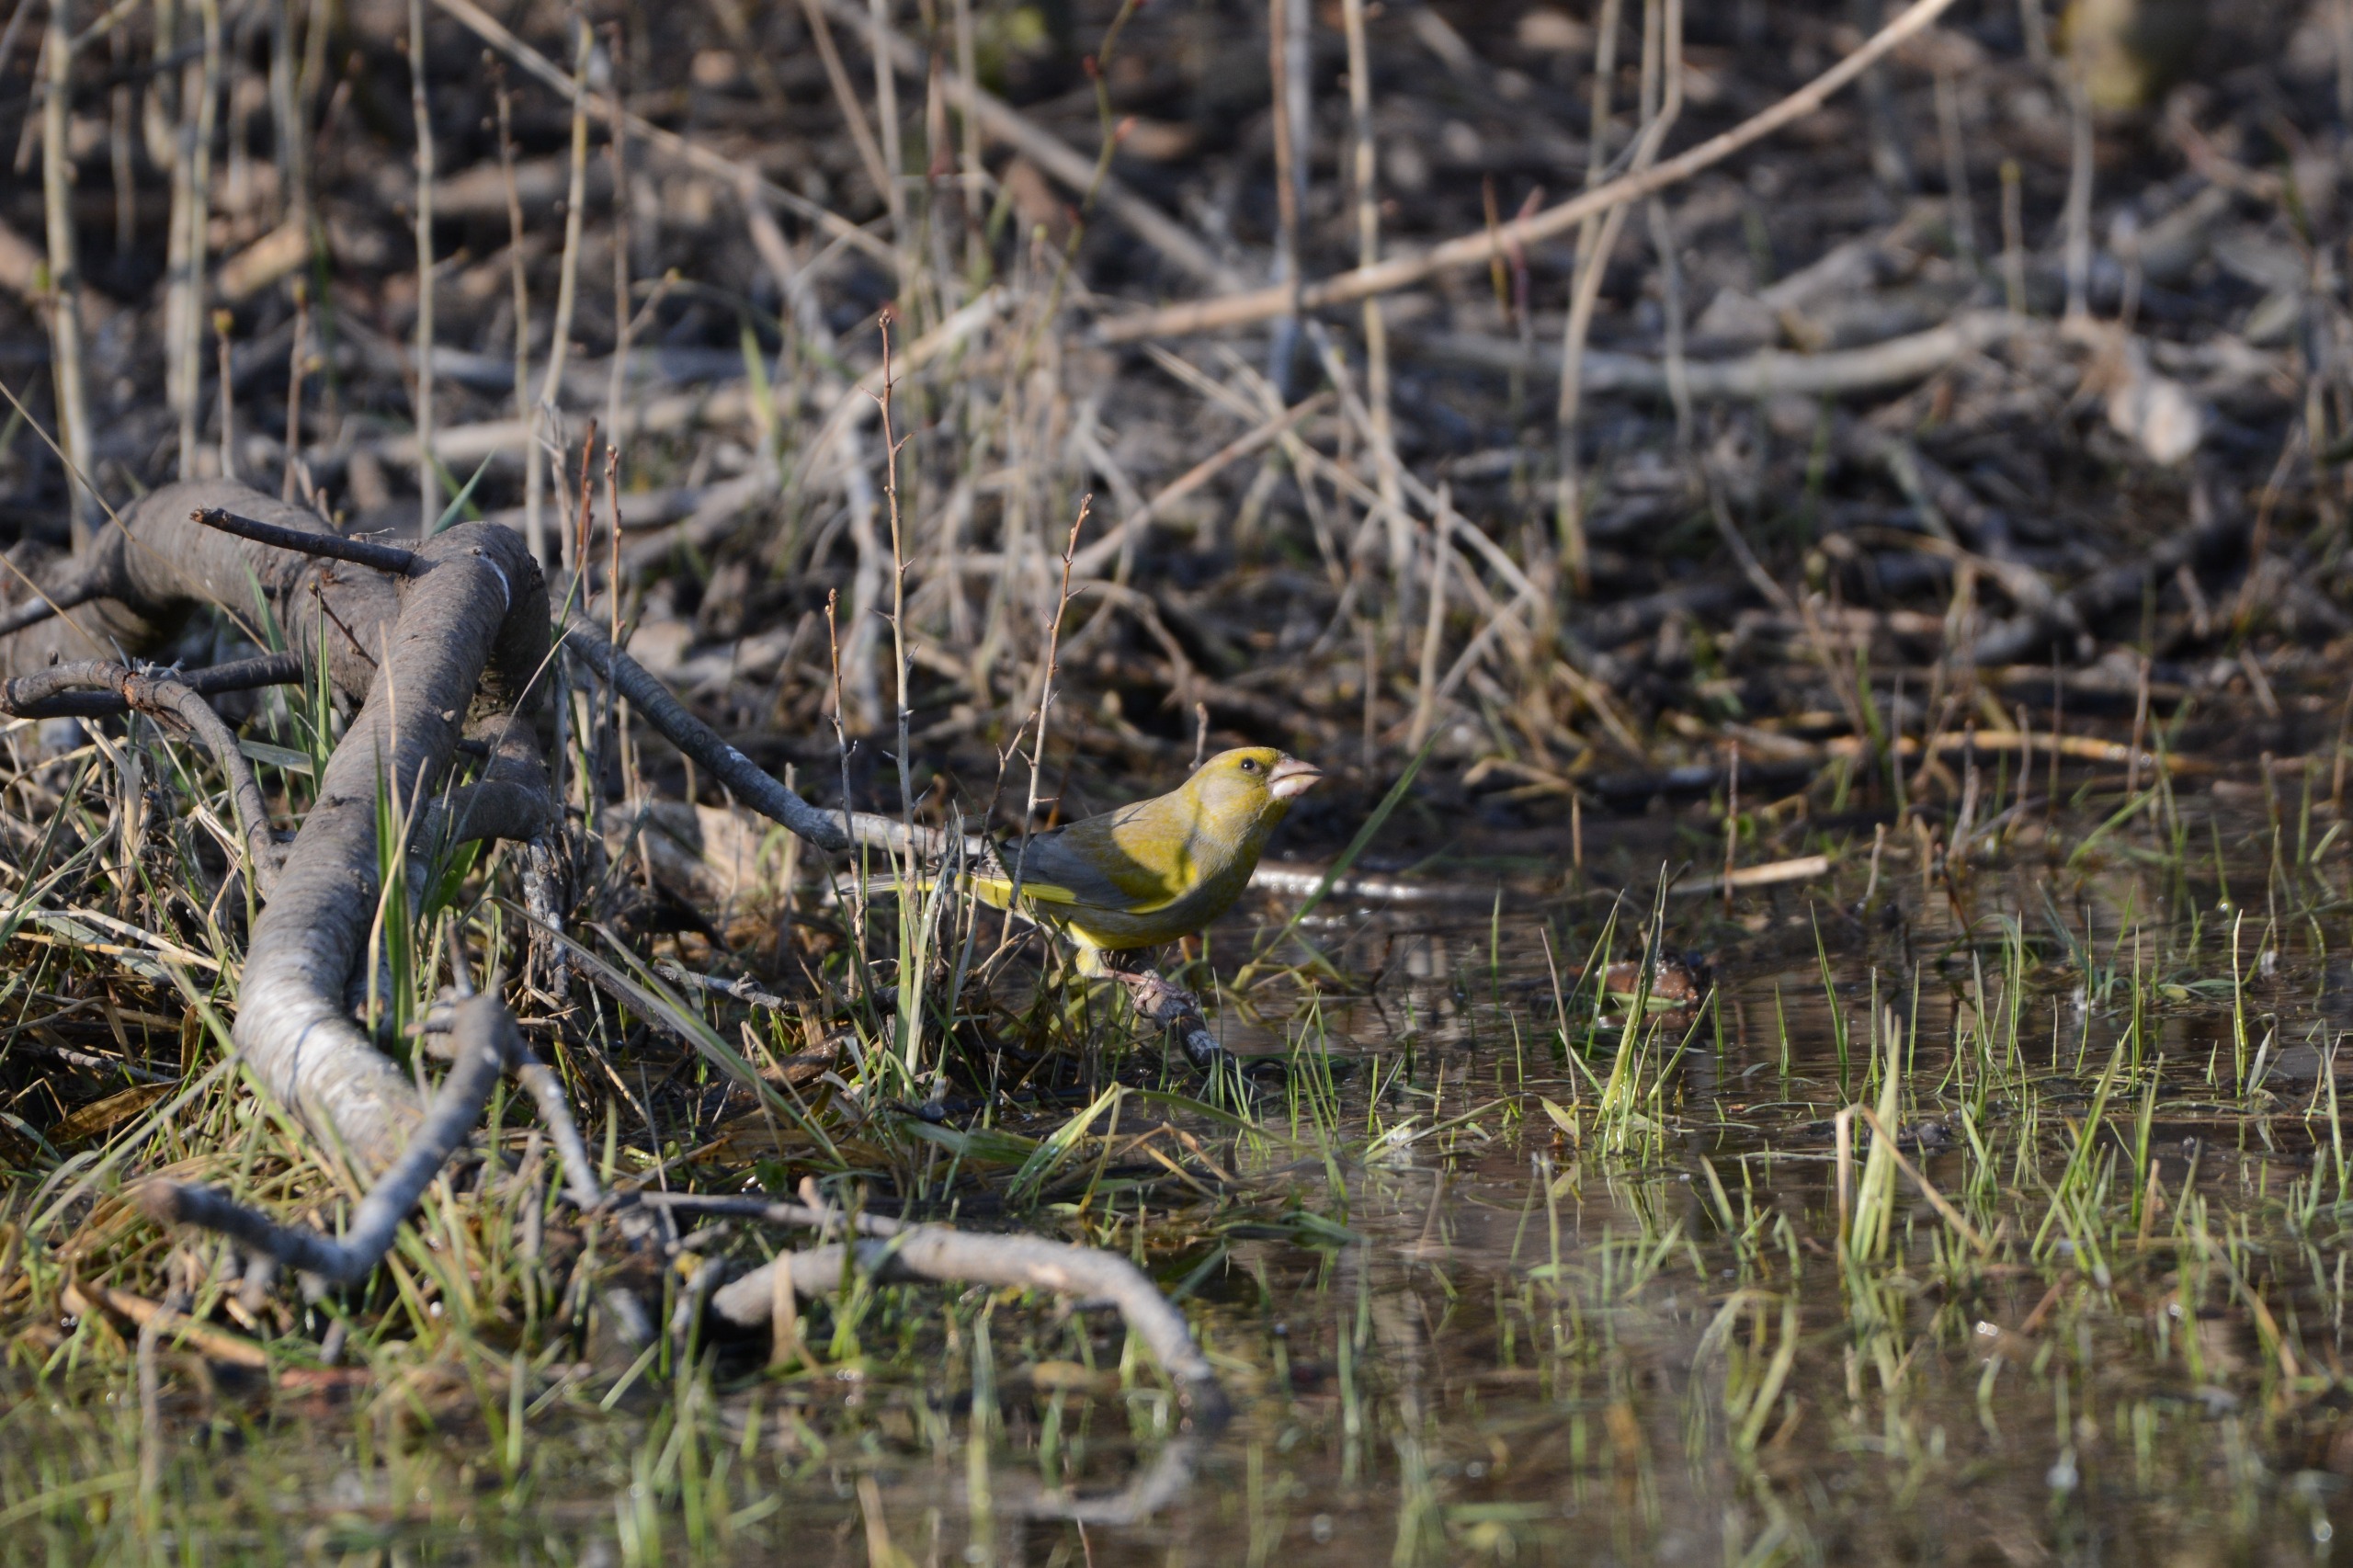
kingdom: Plantae
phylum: Tracheophyta
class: Liliopsida
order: Poales
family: Poaceae
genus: Chloris
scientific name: Chloris chloris
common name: Grønirisk
